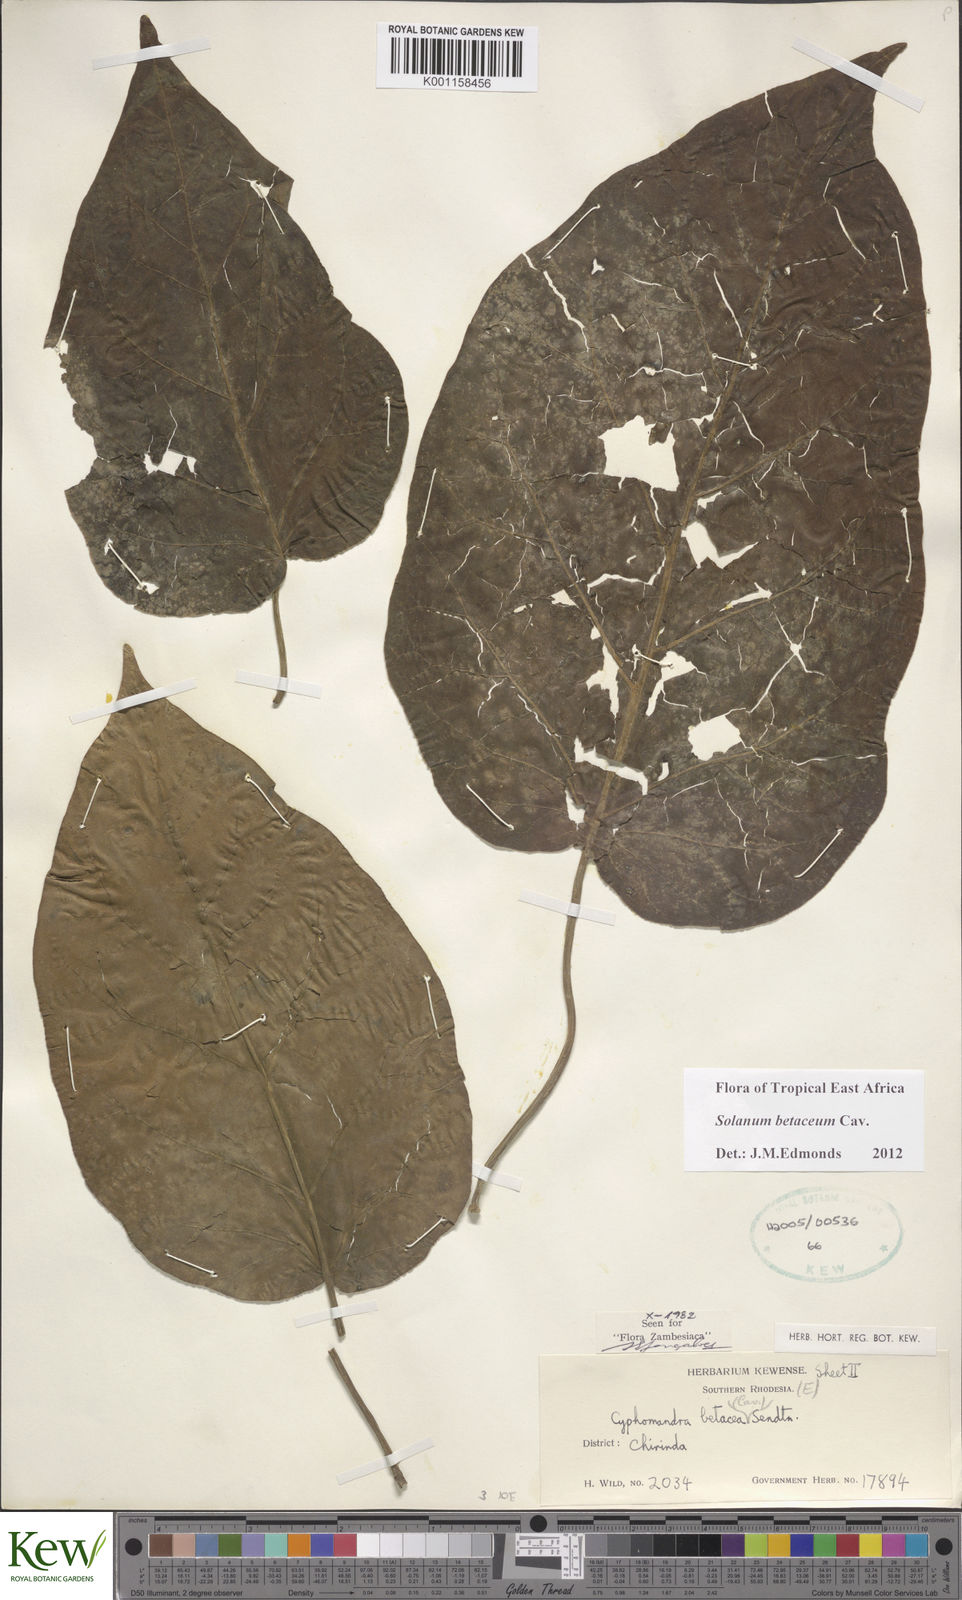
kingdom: Plantae
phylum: Tracheophyta
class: Magnoliopsida
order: Solanales
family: Solanaceae
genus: Solanum
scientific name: Solanum betaceum
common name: Tamarillo
